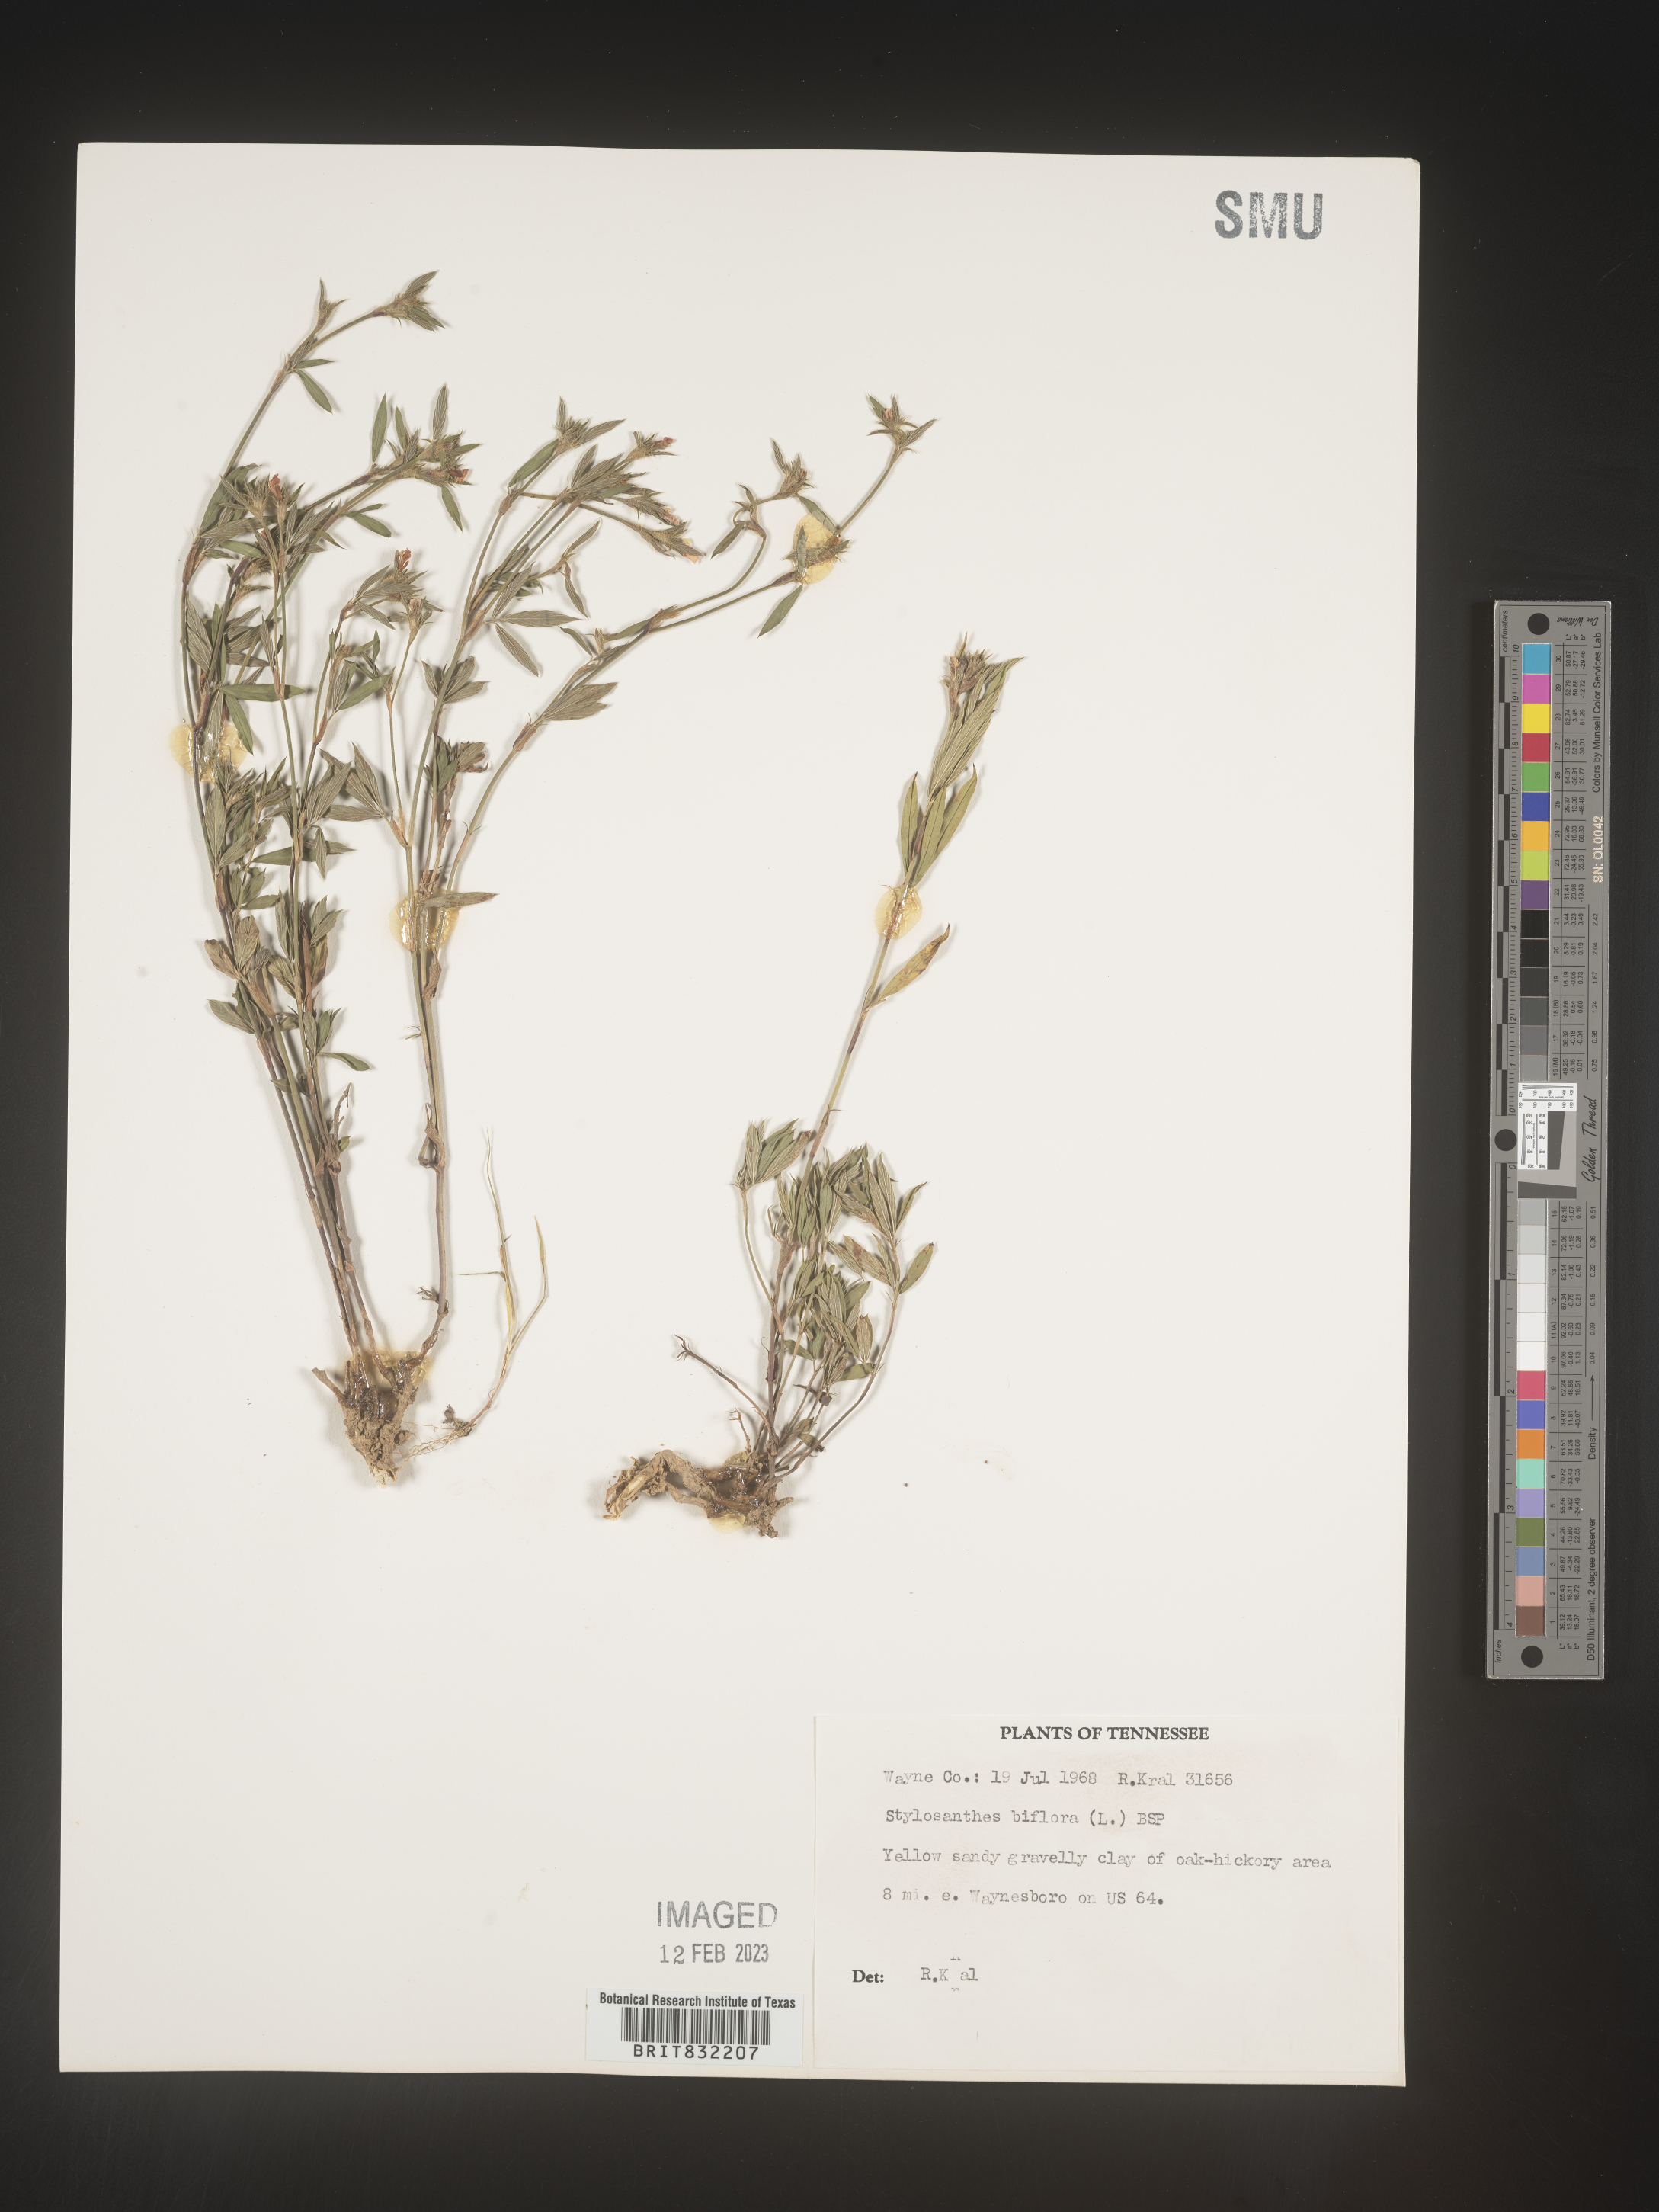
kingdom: Plantae
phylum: Tracheophyta
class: Magnoliopsida
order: Fabales
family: Fabaceae
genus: Stylosanthes
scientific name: Stylosanthes biflora
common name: Two-flower pencil-flower
